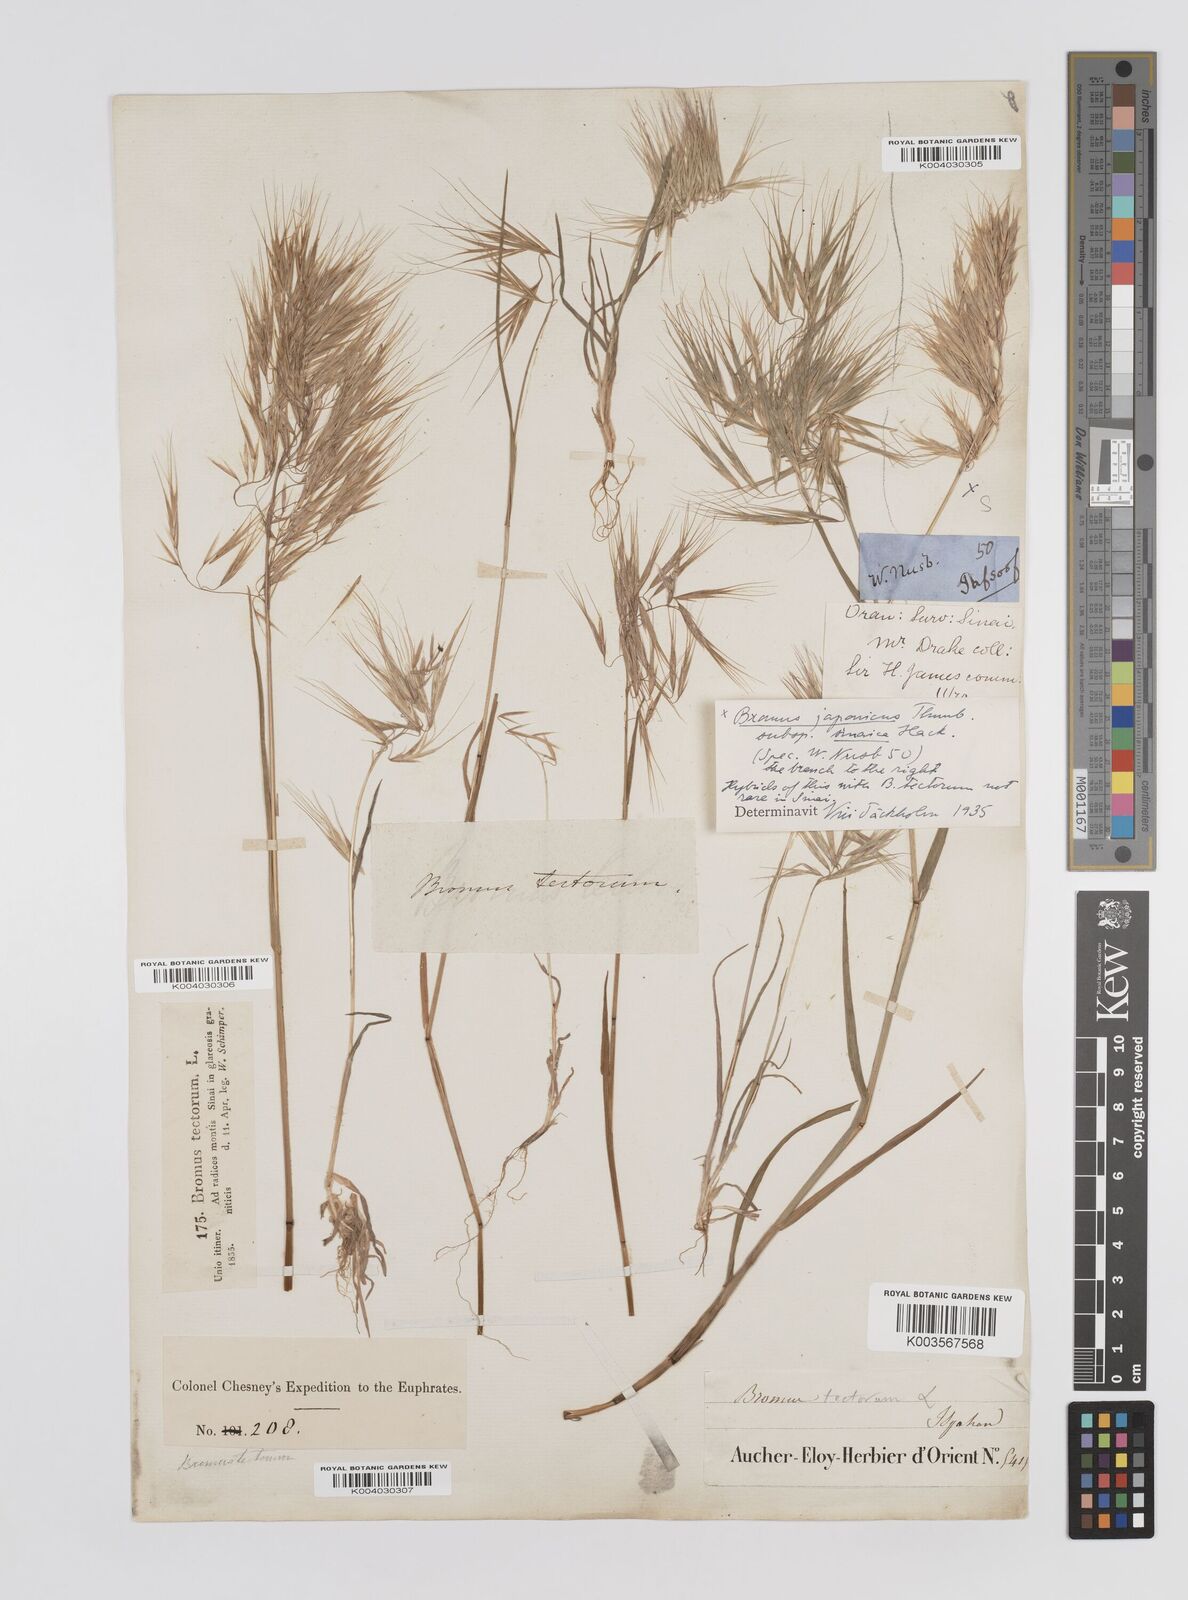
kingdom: Plantae
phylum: Tracheophyta
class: Liliopsida
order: Poales
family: Poaceae
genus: Bromus
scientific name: Bromus pectinatus
